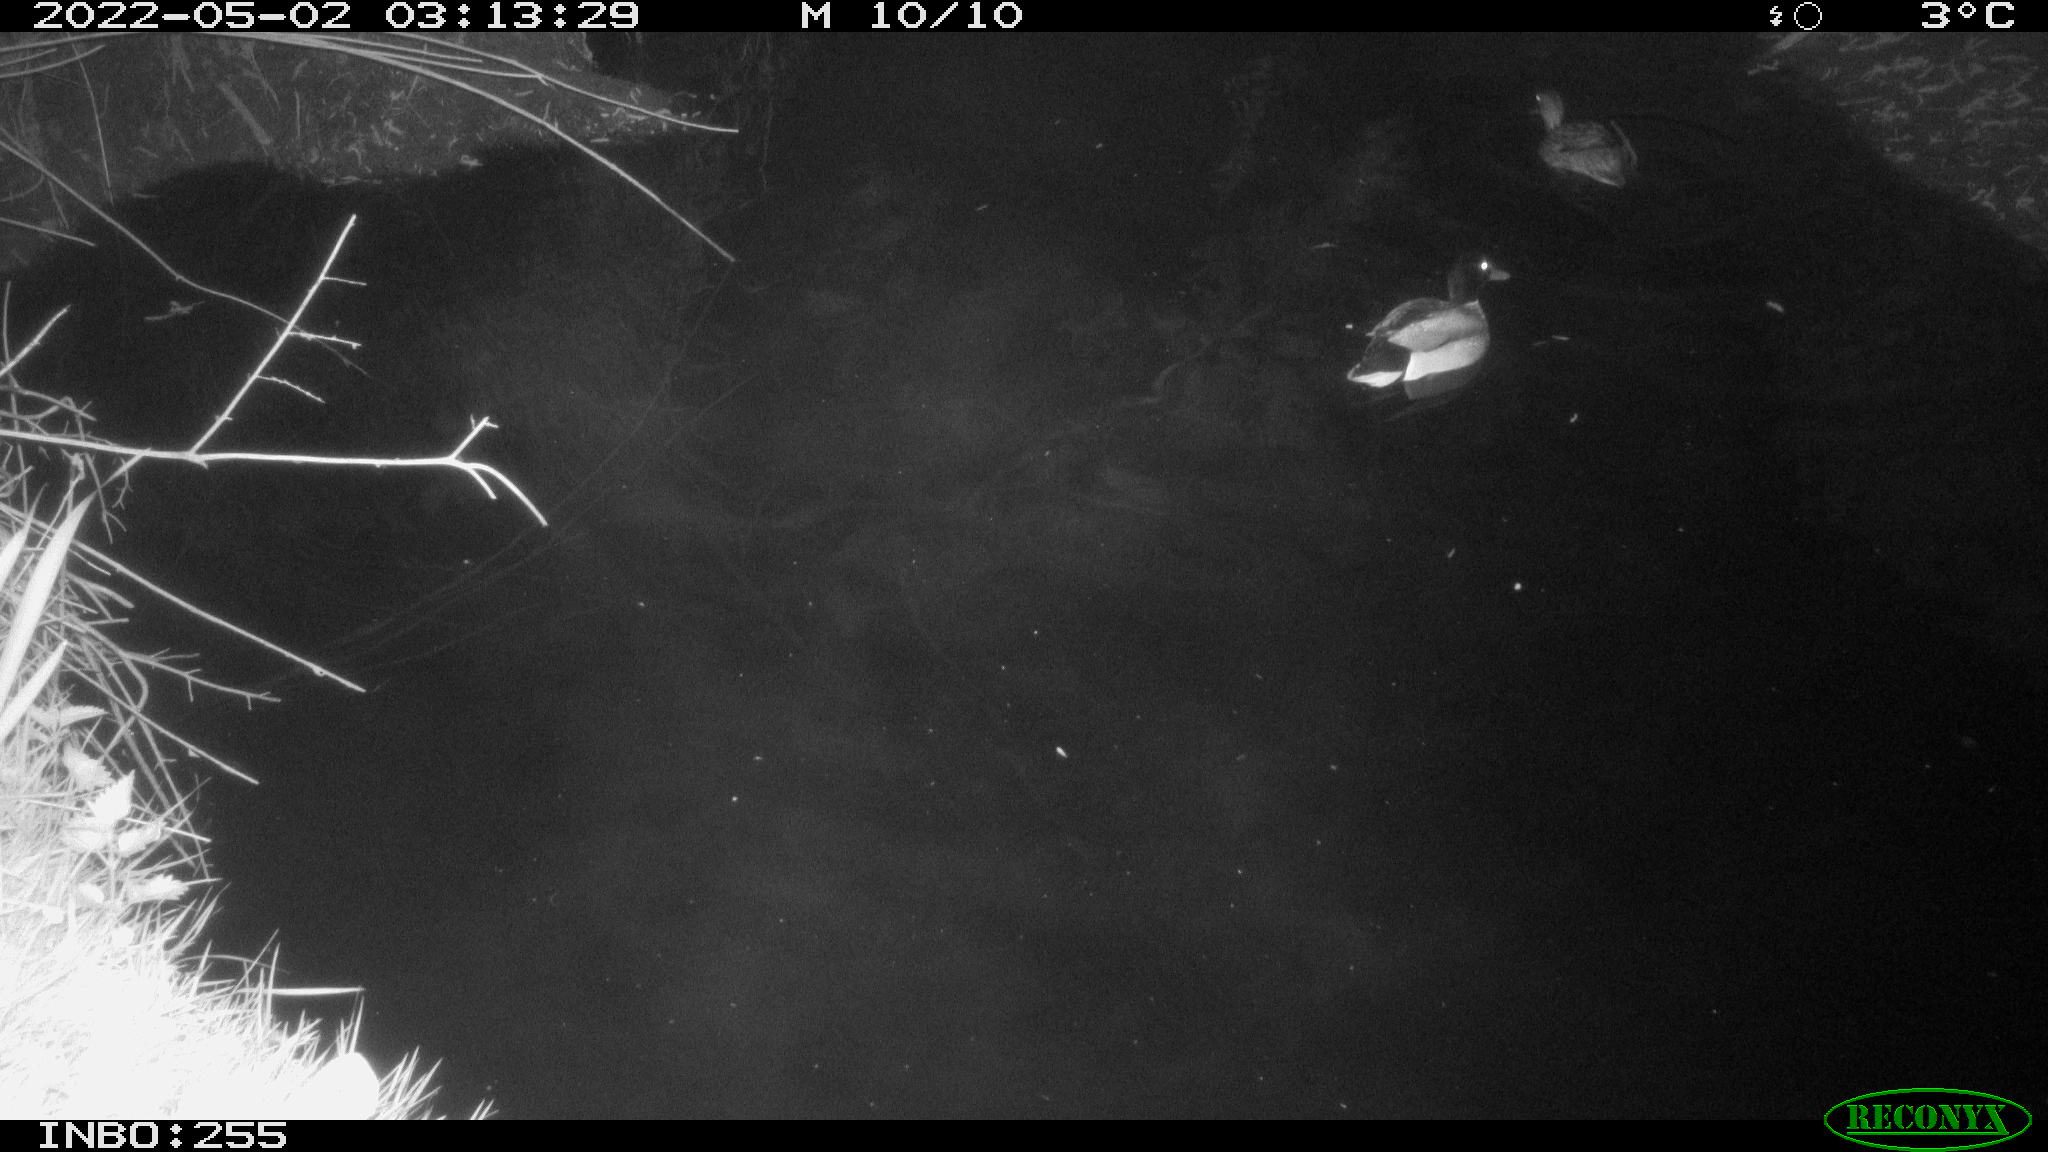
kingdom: Animalia
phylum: Chordata
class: Aves
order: Anseriformes
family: Anatidae
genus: Anas
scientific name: Anas platyrhynchos
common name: Mallard
